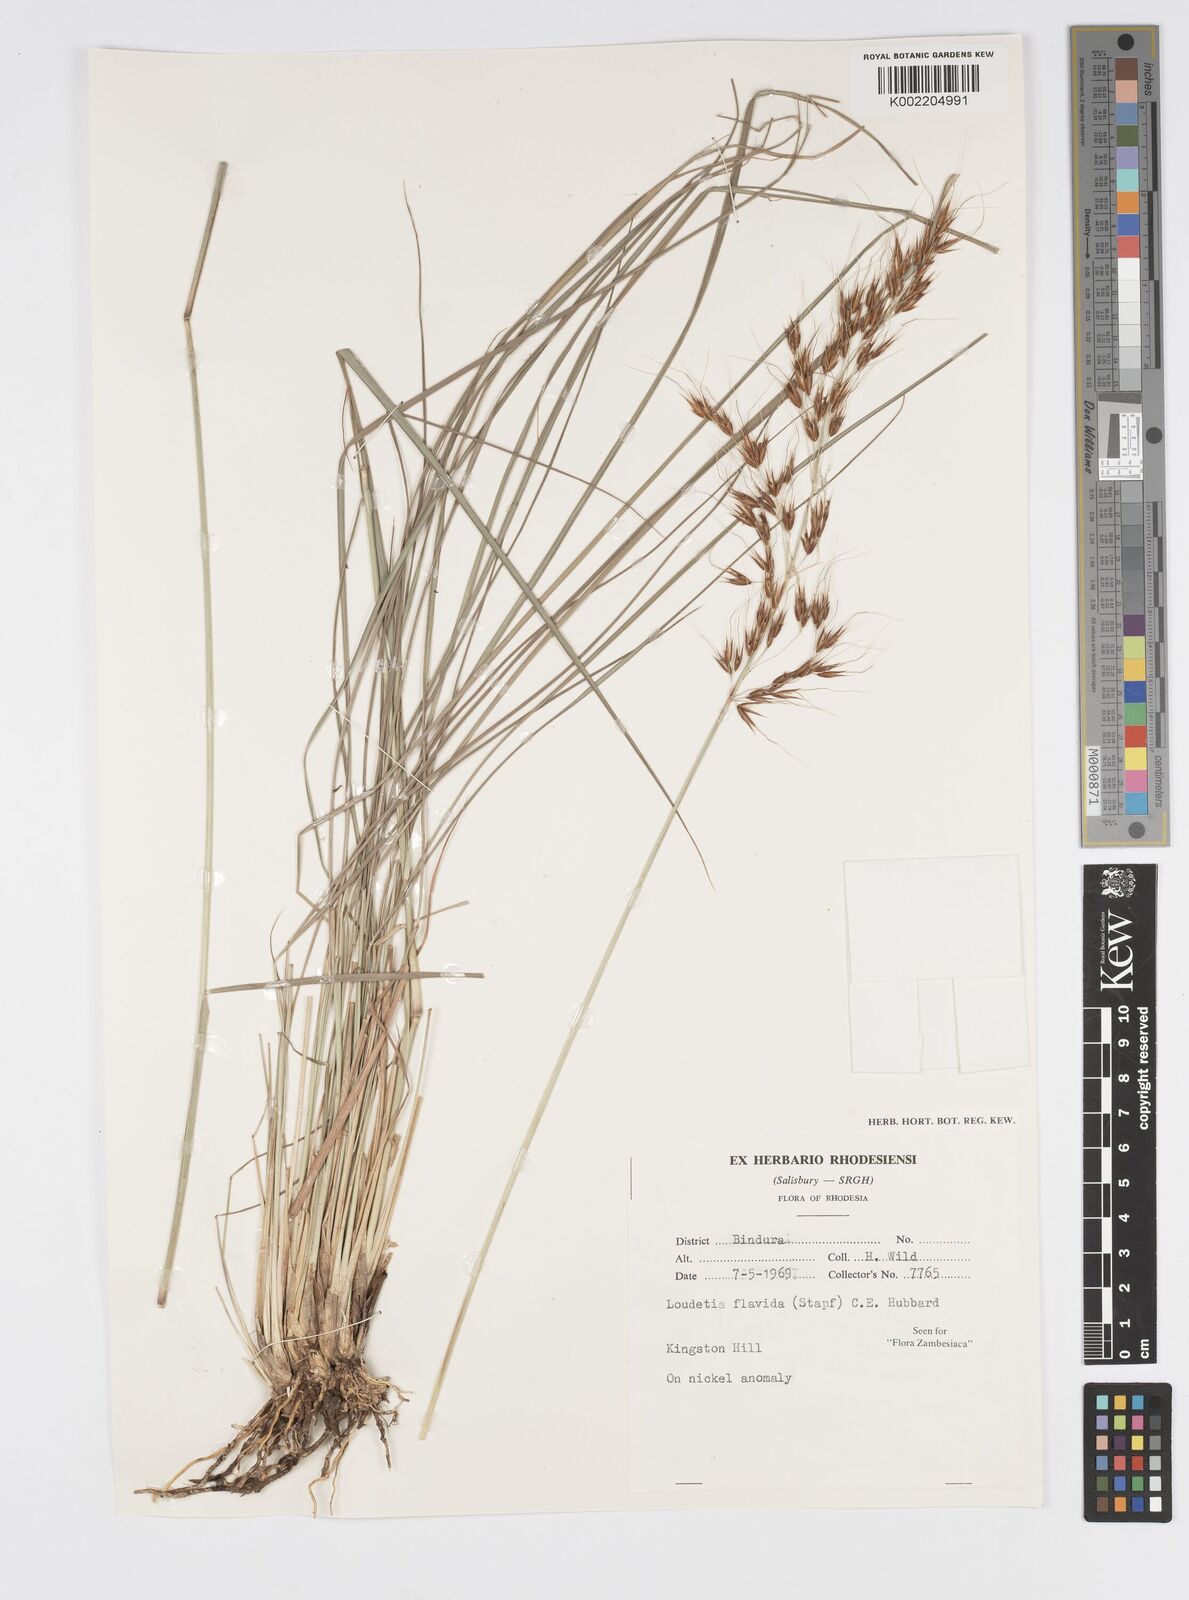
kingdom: Plantae
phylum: Tracheophyta
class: Liliopsida
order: Poales
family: Poaceae
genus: Loudetia
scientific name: Loudetia flavida
